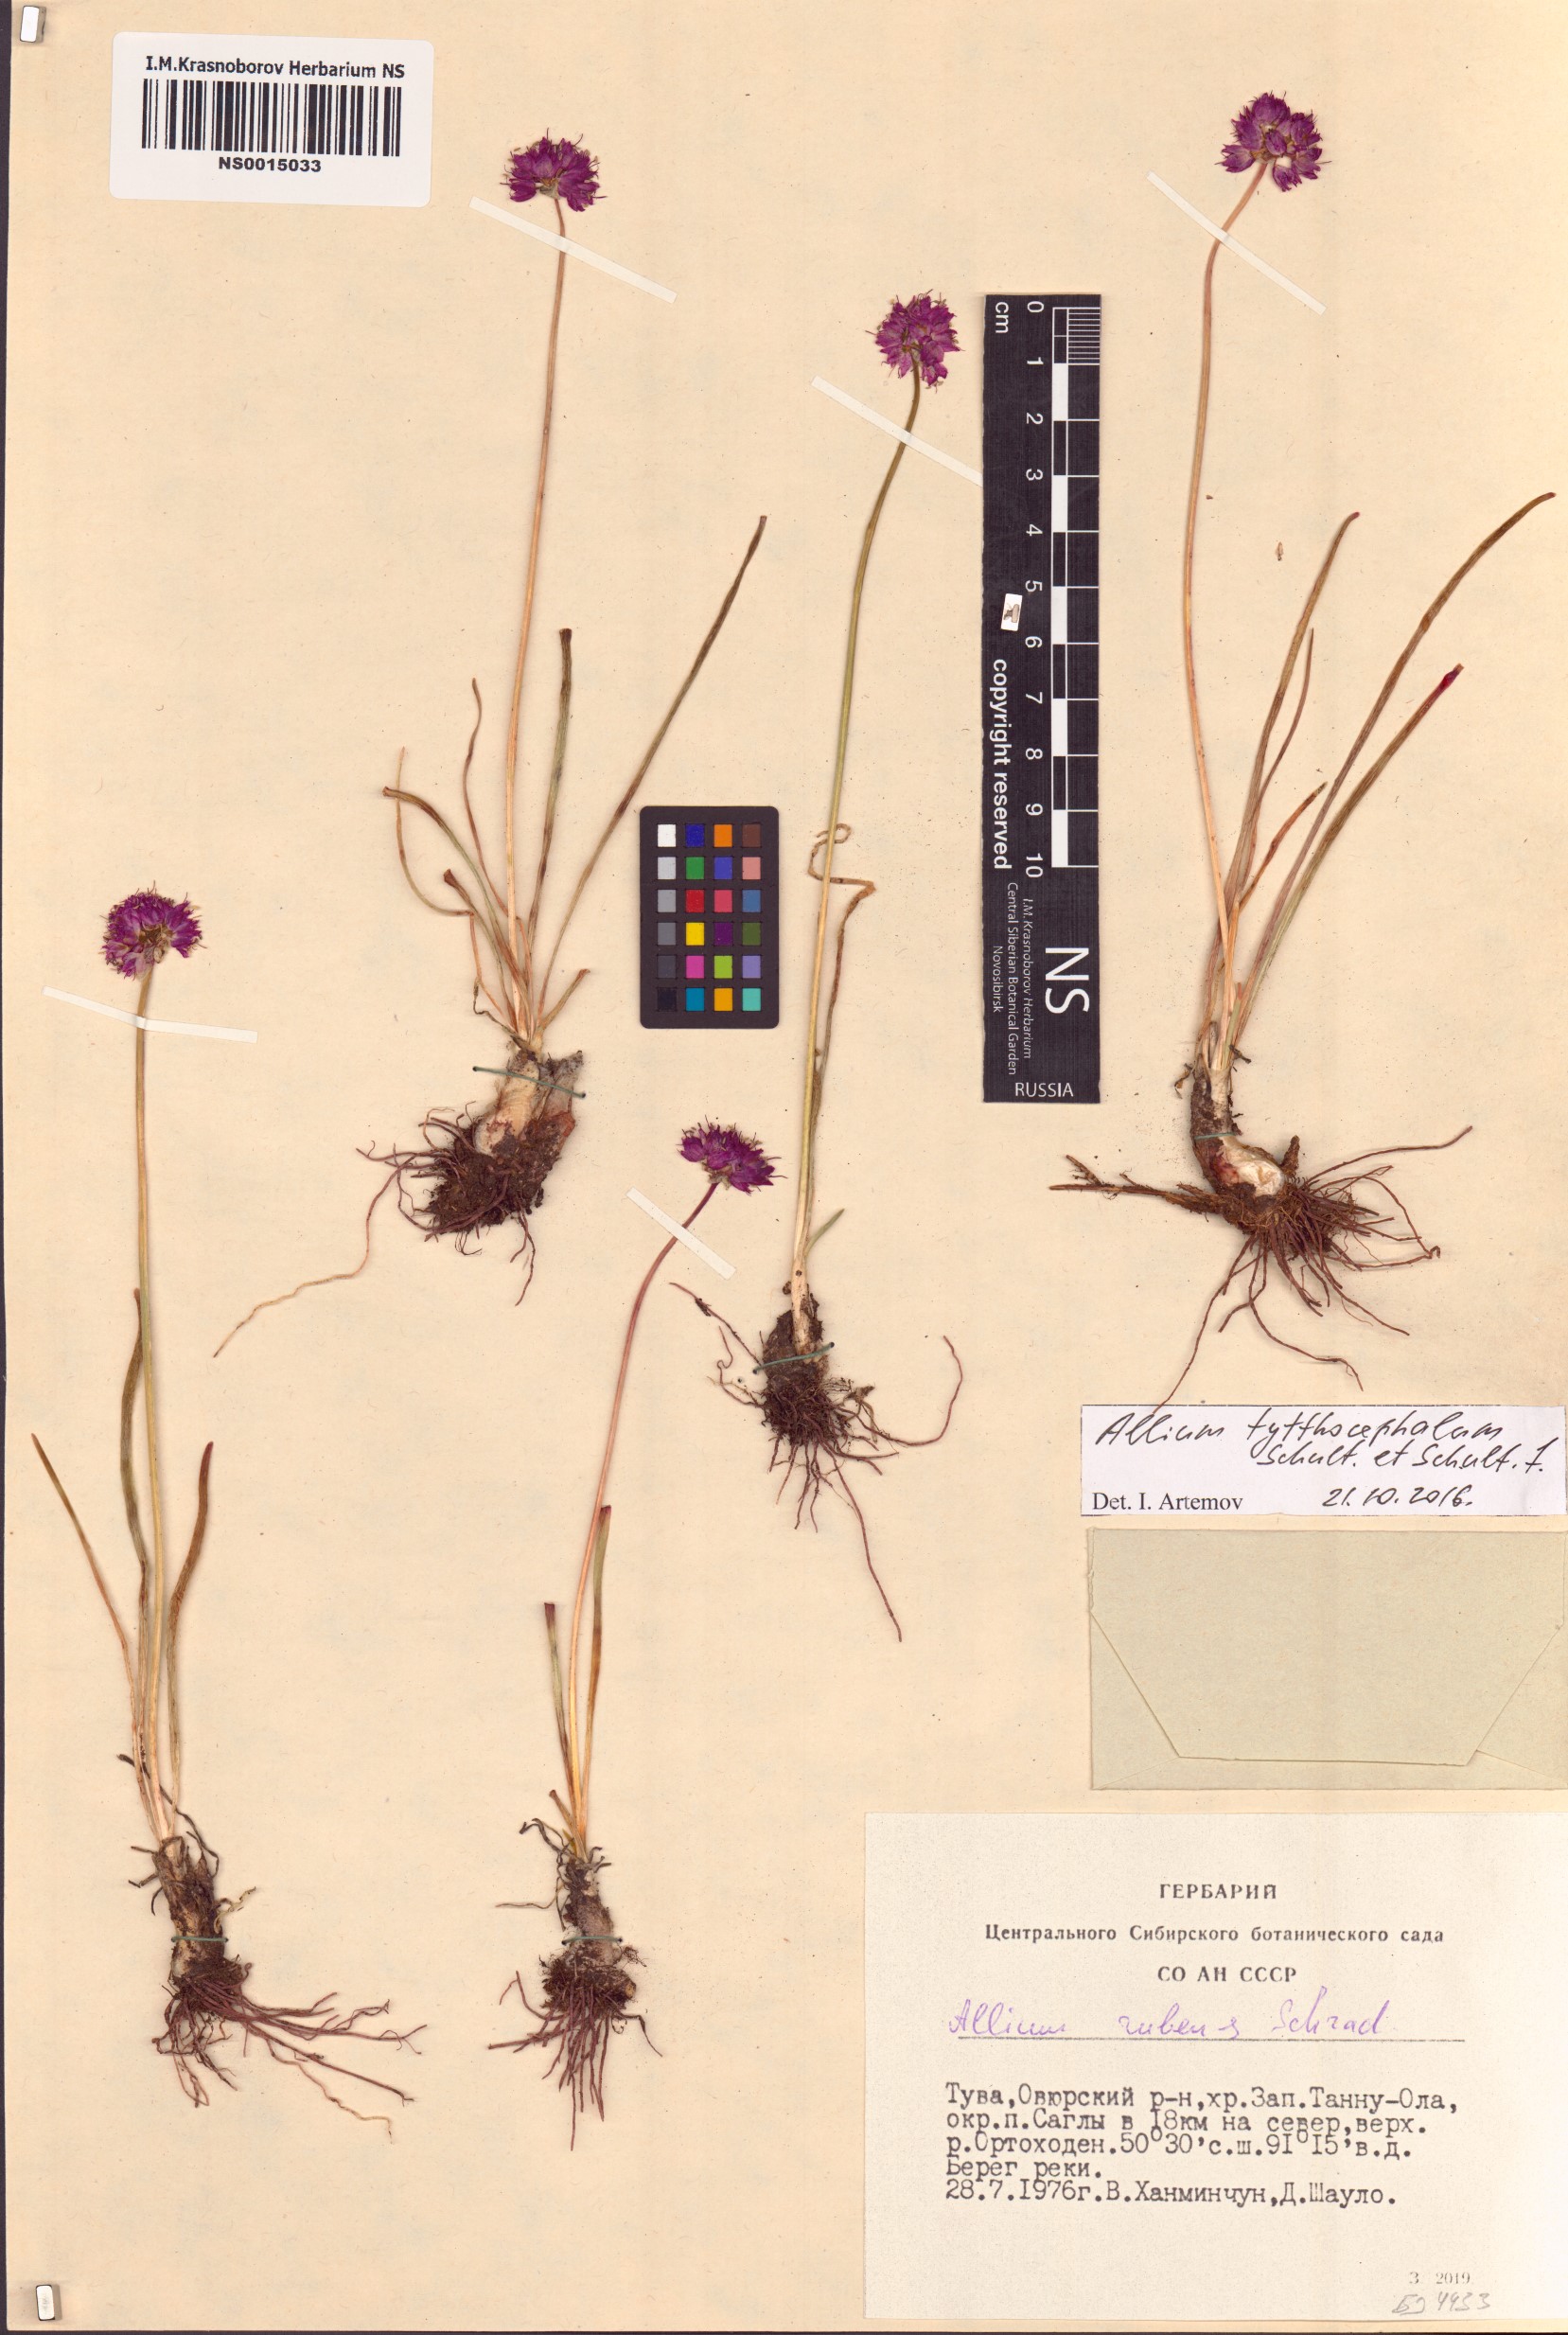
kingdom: Plantae
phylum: Tracheophyta
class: Liliopsida
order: Asparagales
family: Amaryllidaceae
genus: Allium
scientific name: Allium tytthocephalum
